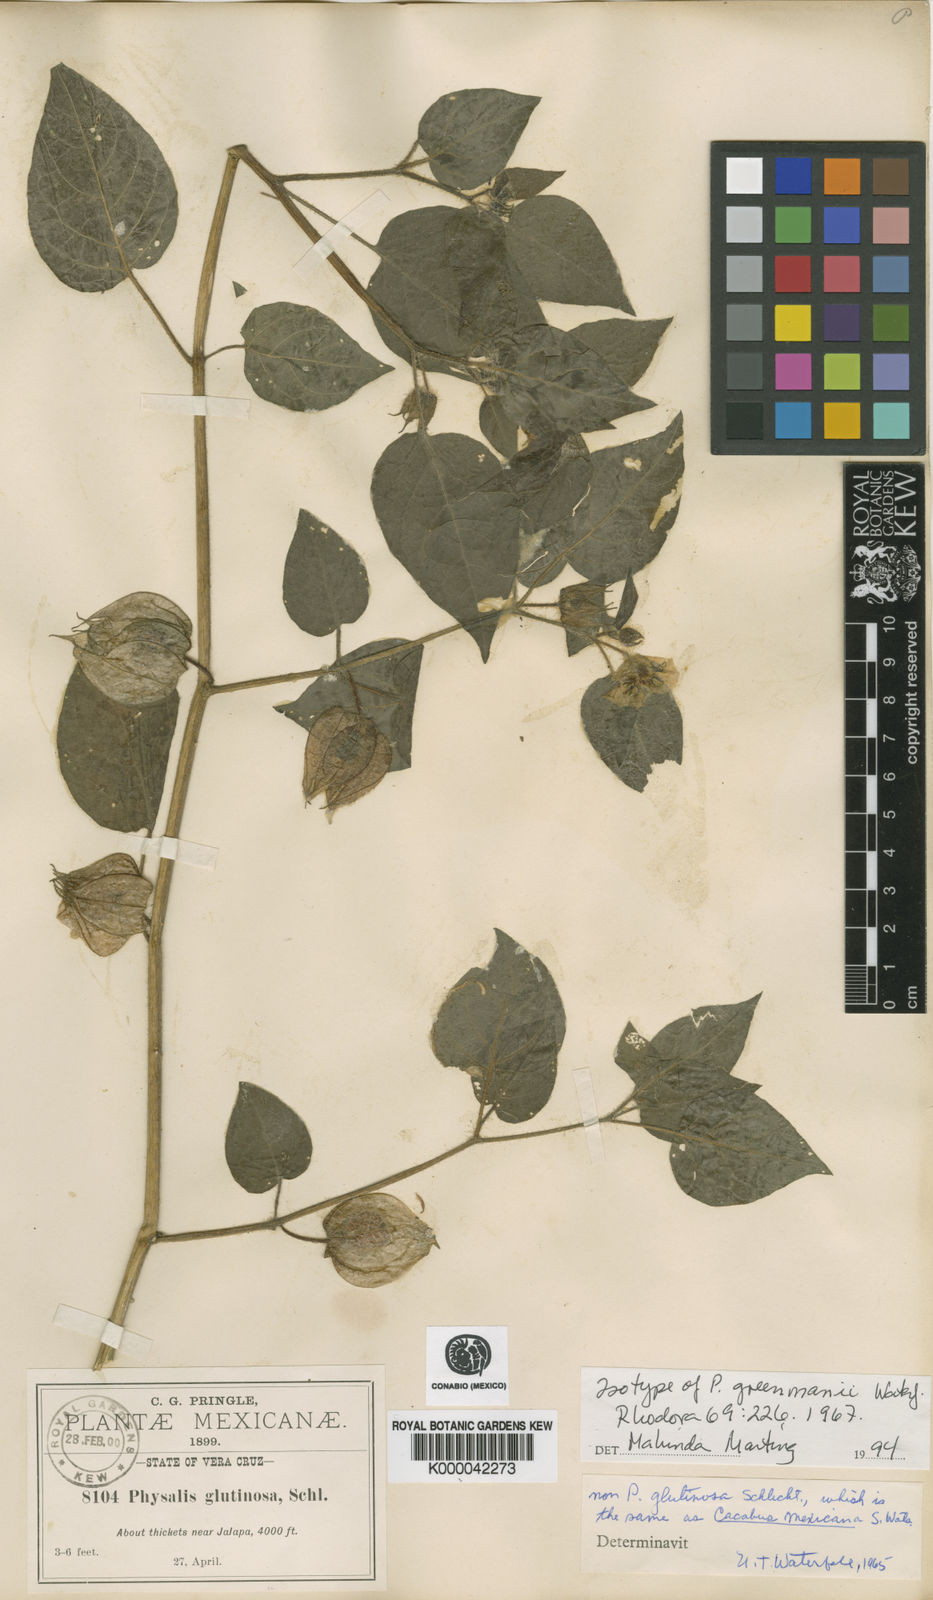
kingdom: Plantae
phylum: Tracheophyta
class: Magnoliopsida
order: Solanales
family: Solanaceae
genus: Physalis
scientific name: Physalis greenmanii
